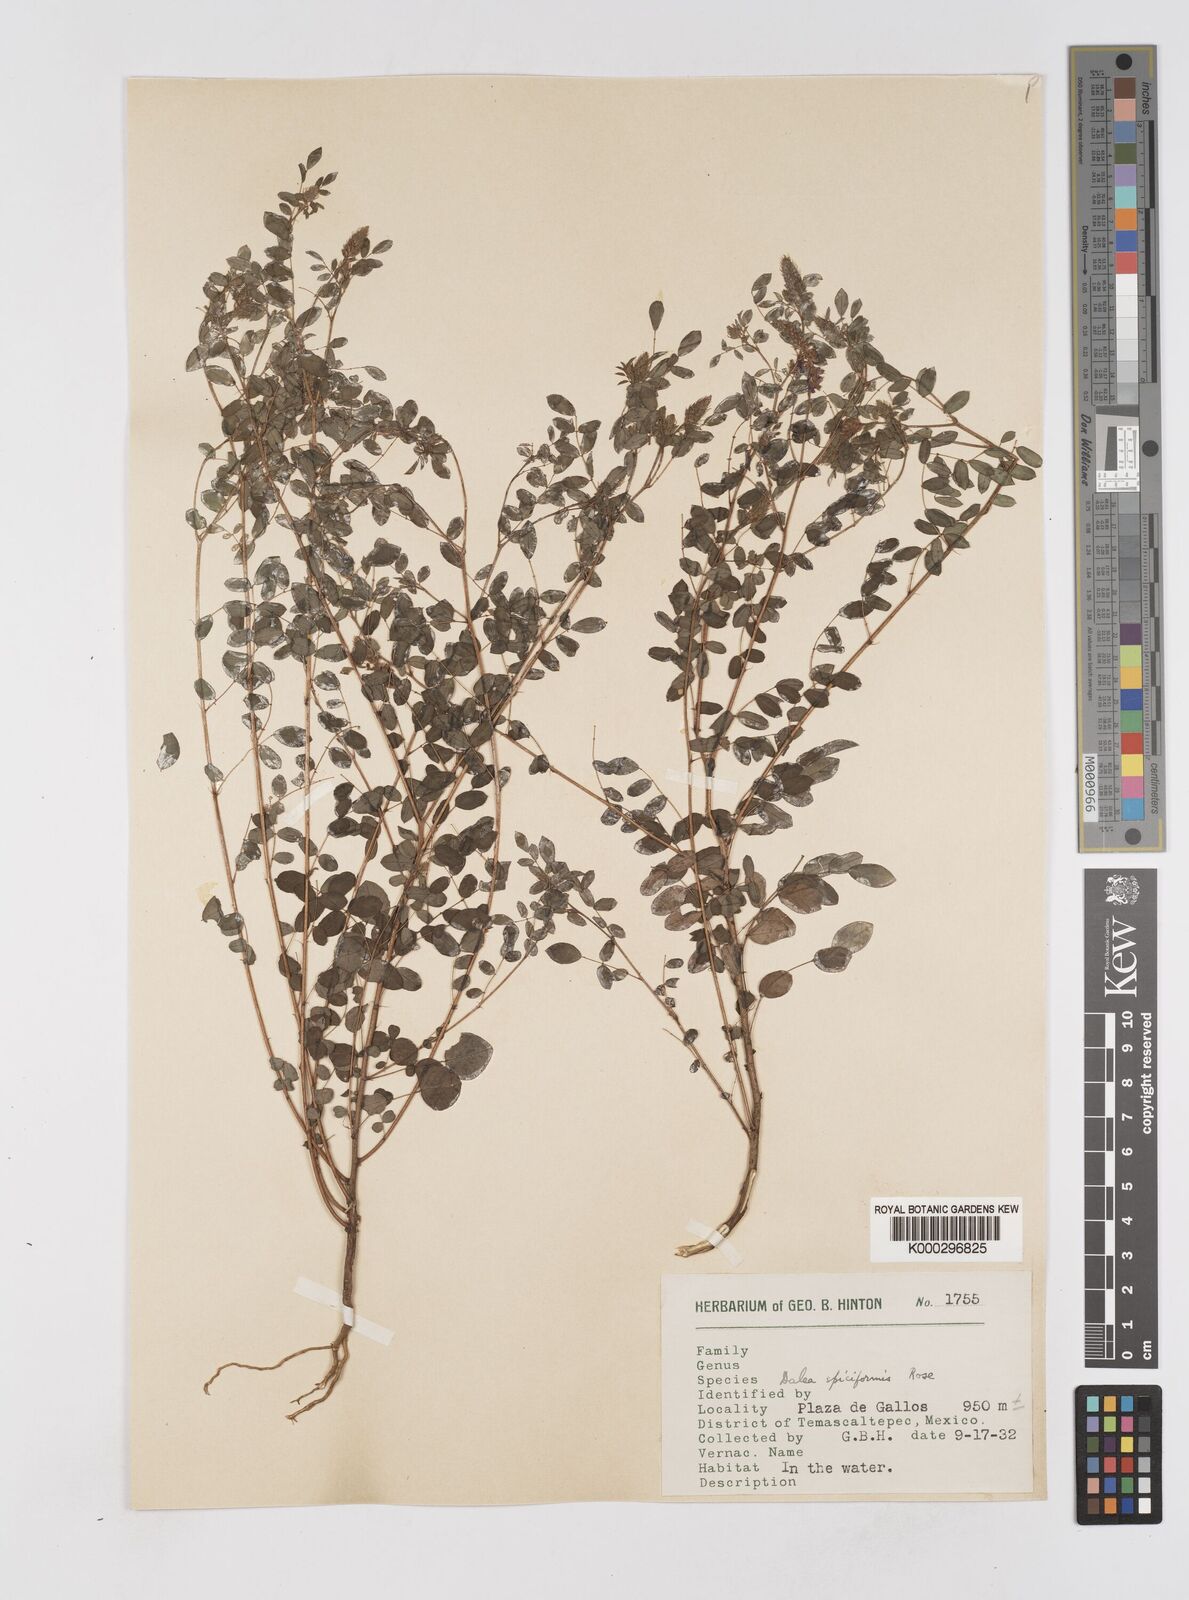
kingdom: Plantae
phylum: Tracheophyta
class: Magnoliopsida
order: Fabales
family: Fabaceae
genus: Marina
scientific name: Marina spiciformis
